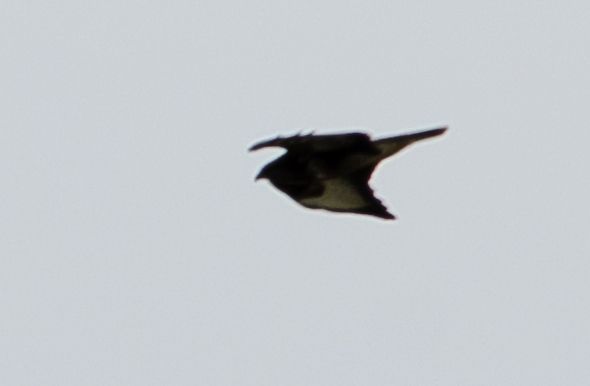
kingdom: Animalia
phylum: Chordata
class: Aves
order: Accipitriformes
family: Accipitridae
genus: Buteo
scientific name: Buteo buteo
